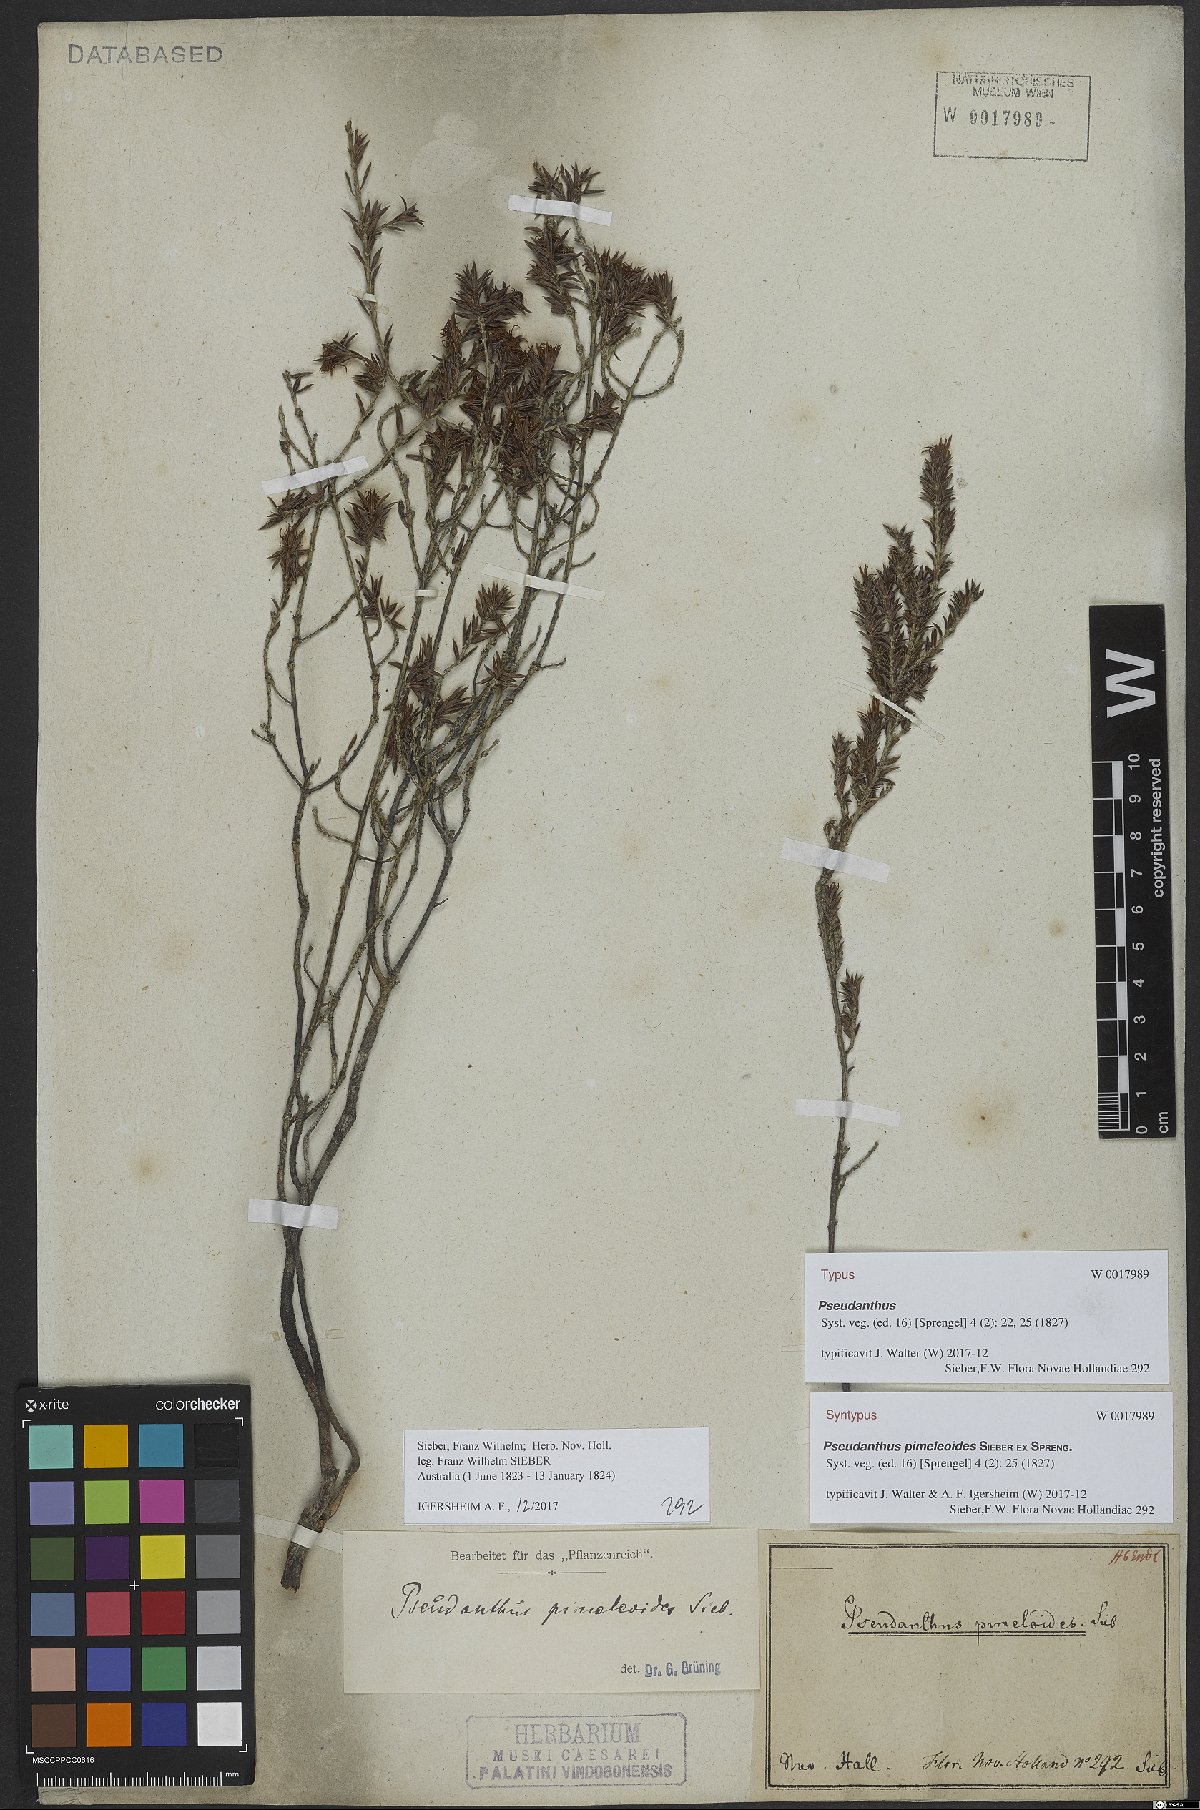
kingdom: Plantae
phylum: Tracheophyta
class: Magnoliopsida
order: Malpighiales
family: Picrodendraceae
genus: Pseudanthus
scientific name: Pseudanthus pimeleoides
